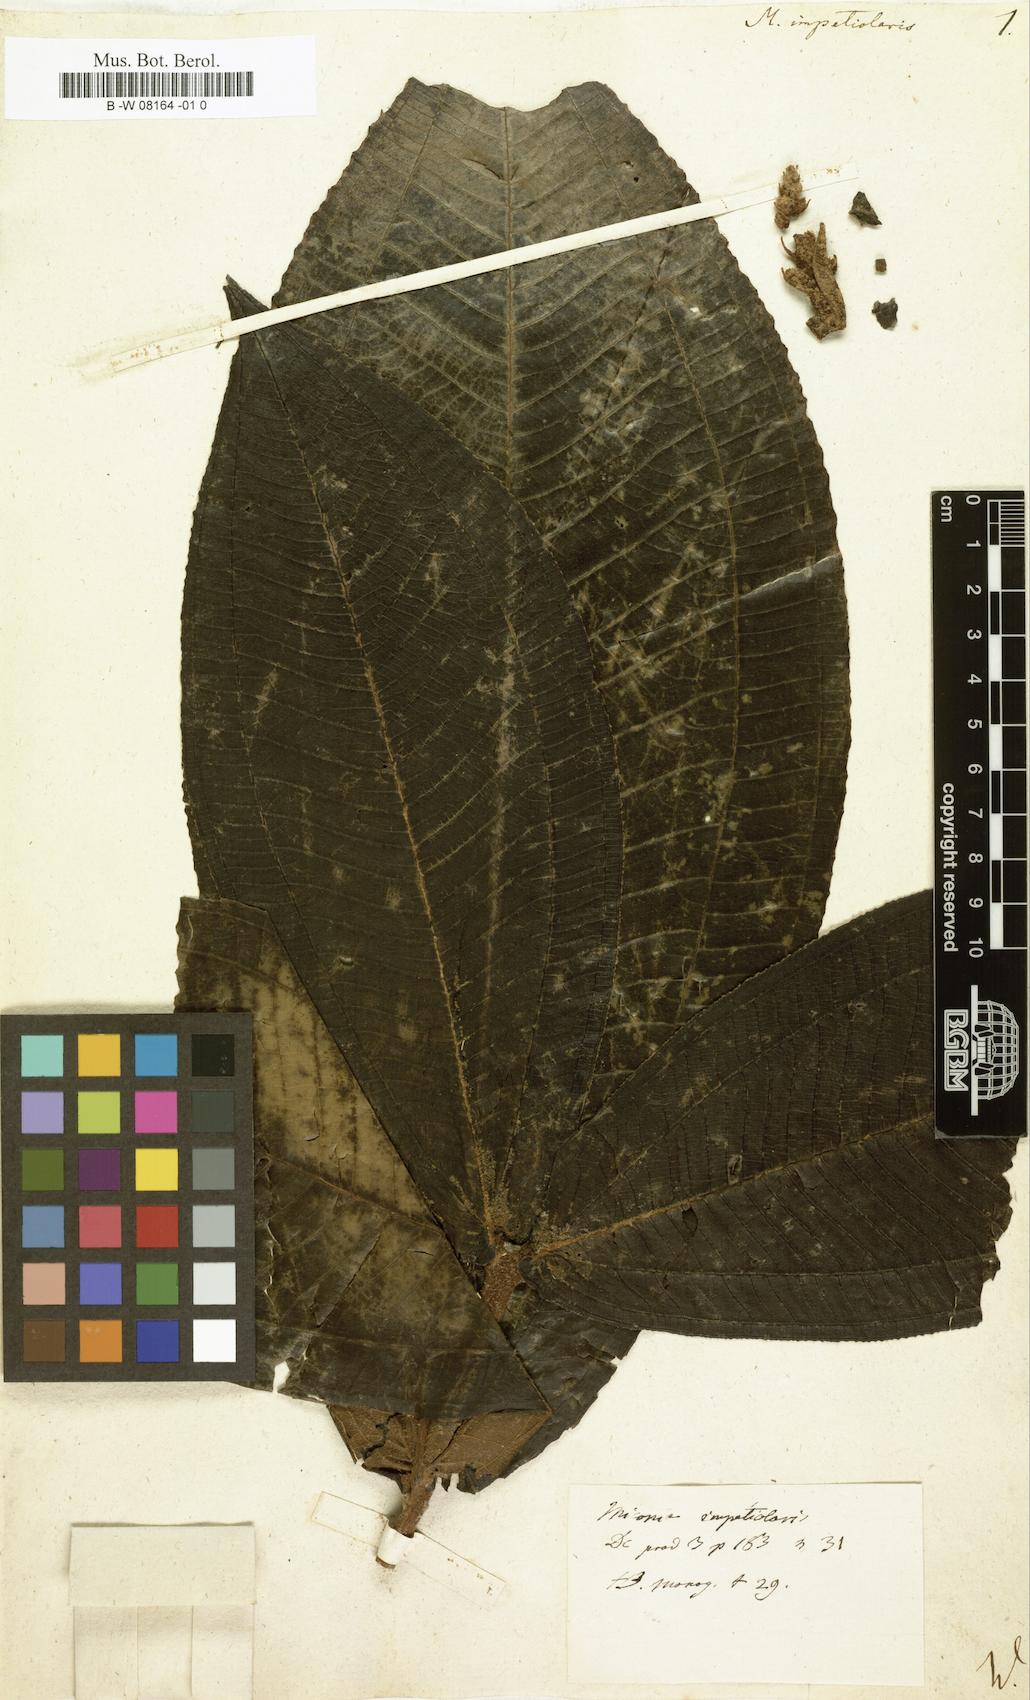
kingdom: Plantae
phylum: Tracheophyta
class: Magnoliopsida
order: Myrtales
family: Melastomataceae
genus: Miconia
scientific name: Miconia impetiolaris
